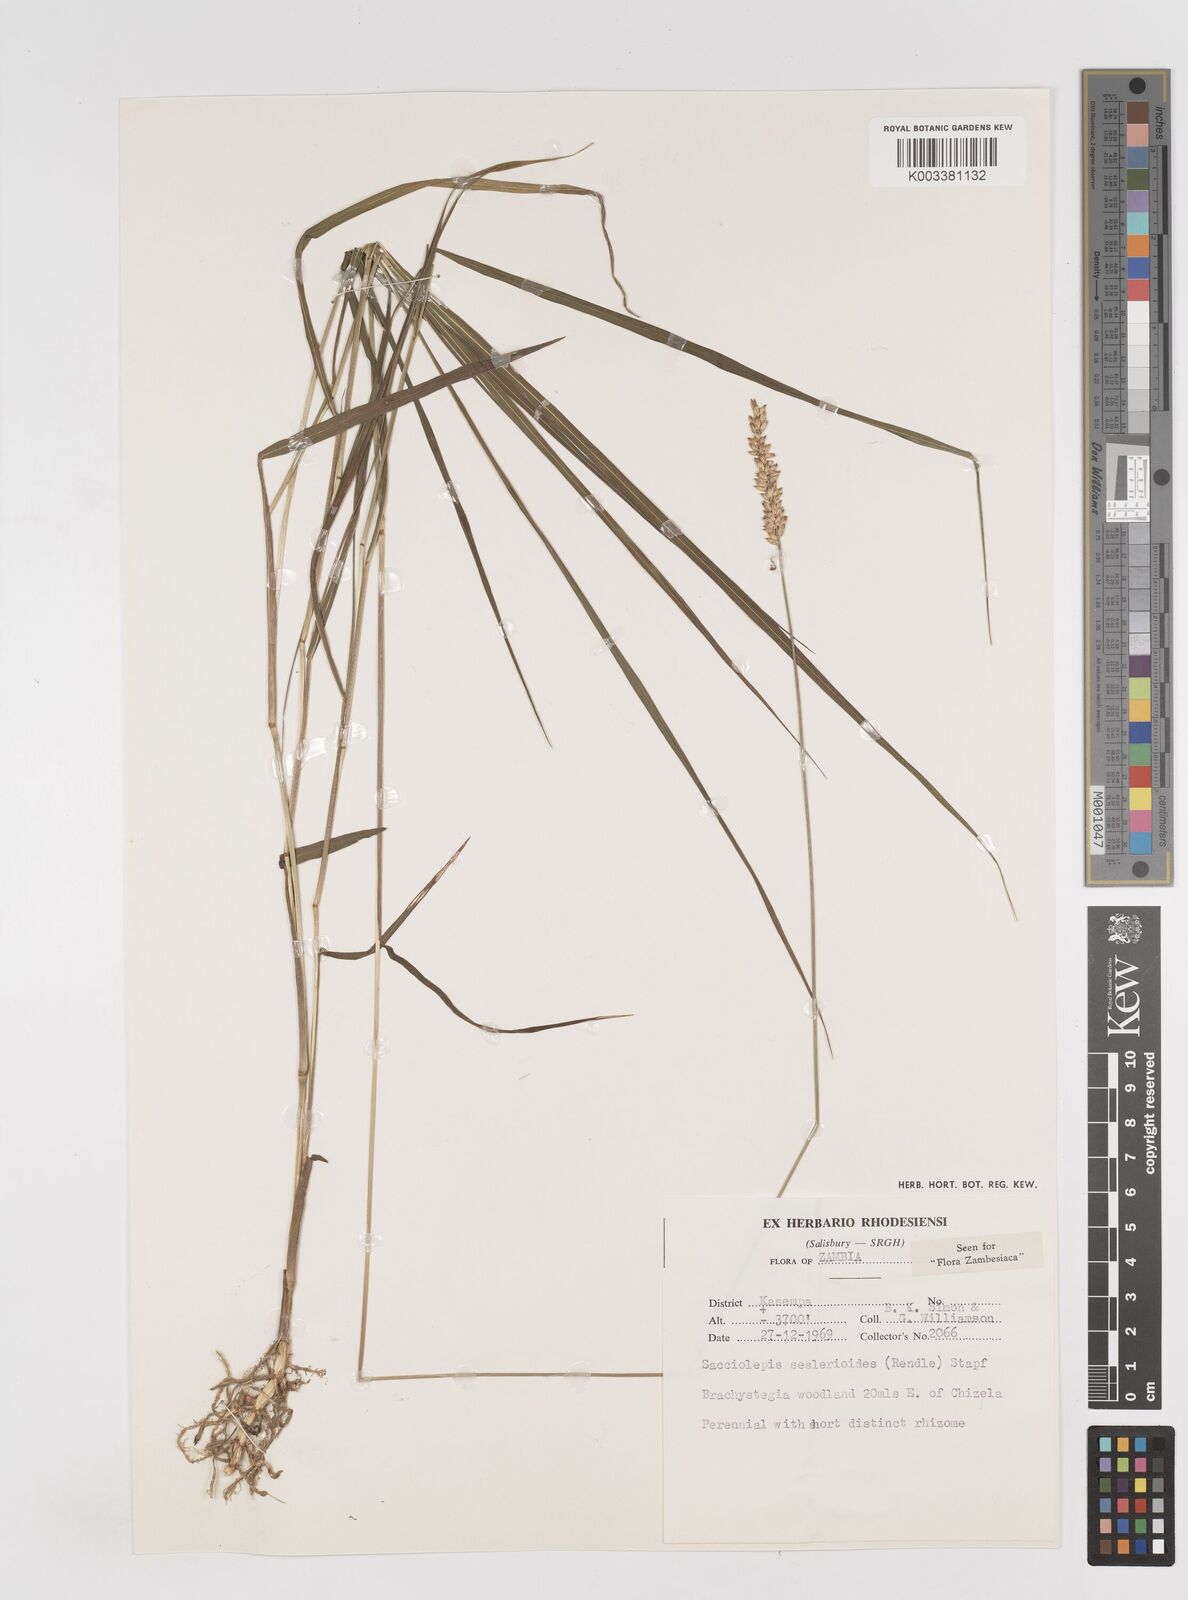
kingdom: Plantae
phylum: Tracheophyta
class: Liliopsida
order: Poales
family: Poaceae
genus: Sacciolepis
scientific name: Sacciolepis seslerioides
